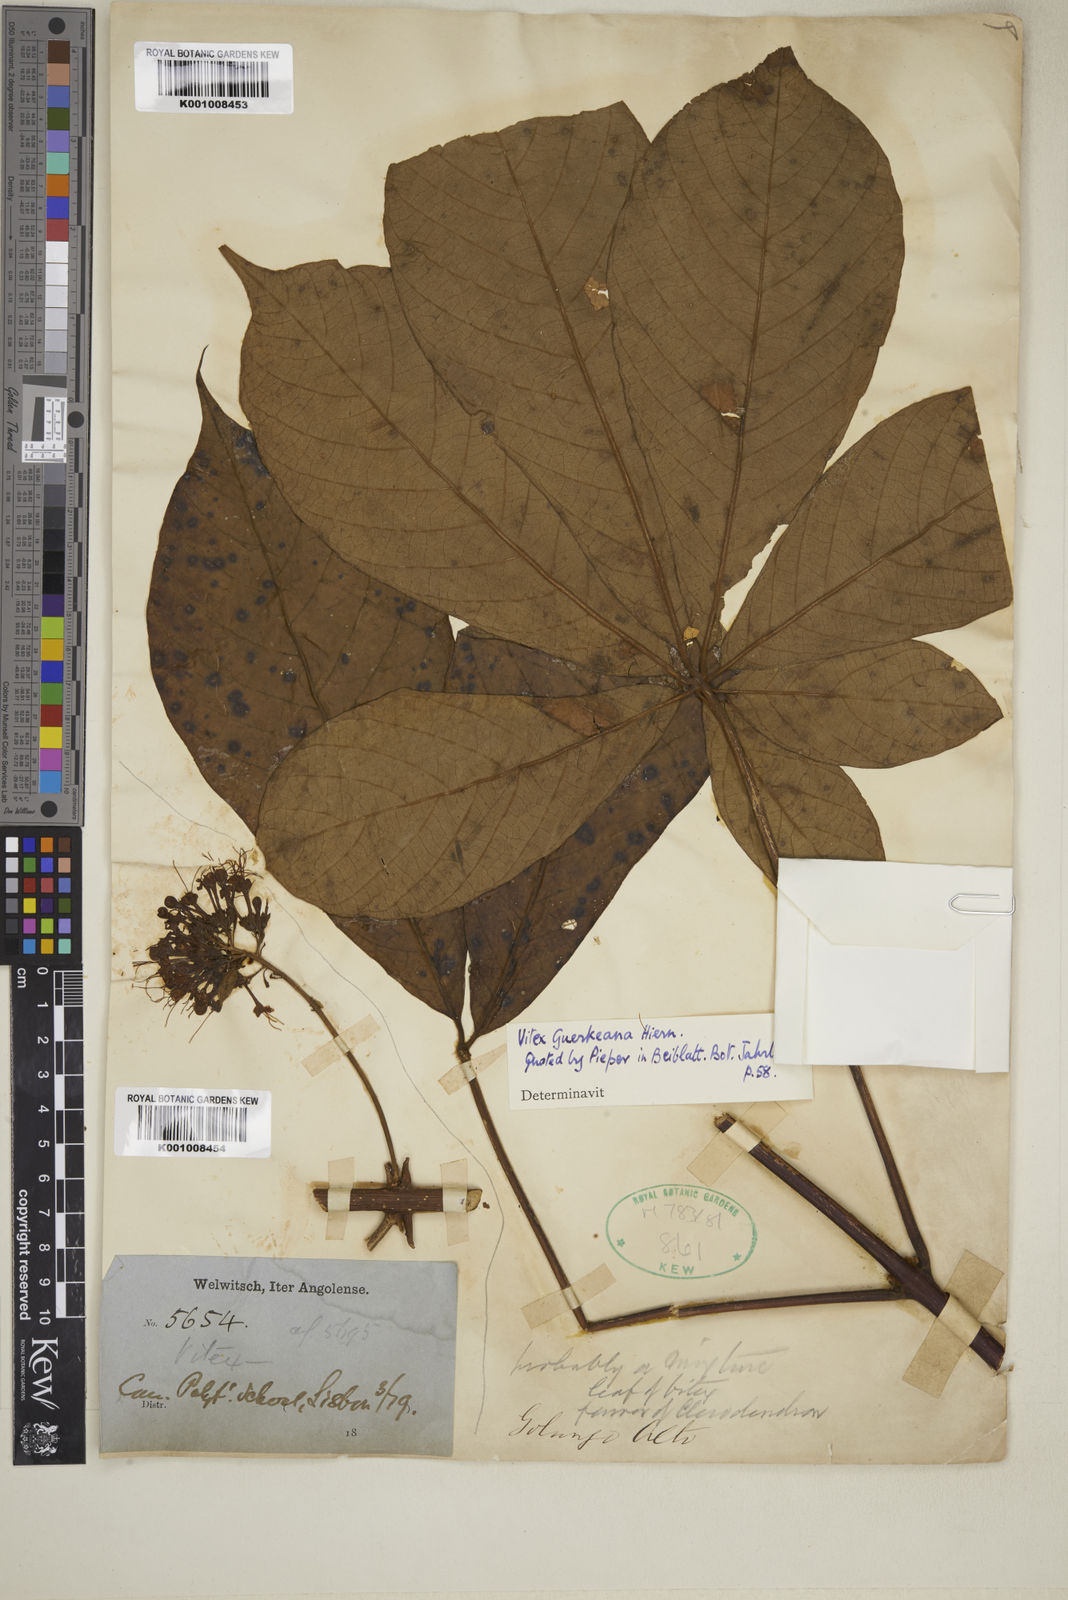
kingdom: Plantae
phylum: Tracheophyta
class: Magnoliopsida
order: Lamiales
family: Lamiaceae
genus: Vitex
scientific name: Vitex ferruginea
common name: Plum fingerleaf
